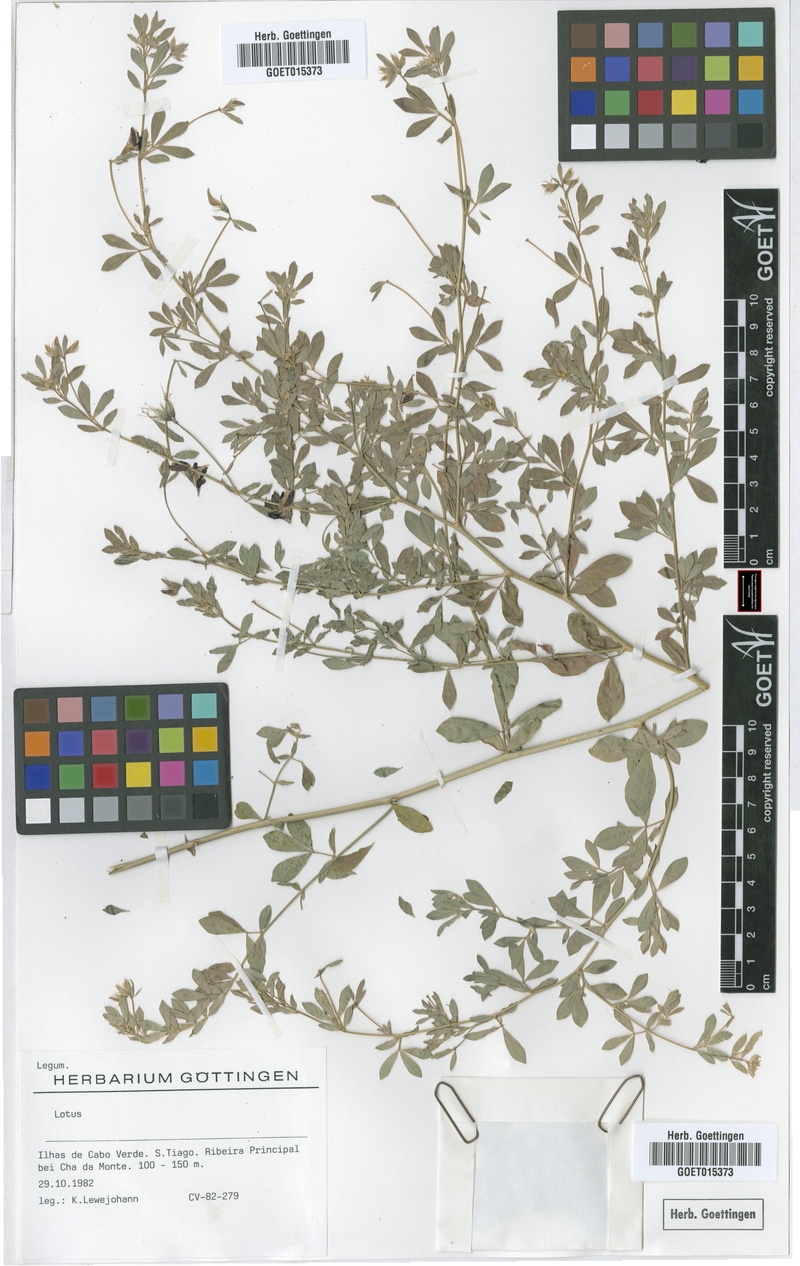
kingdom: Plantae
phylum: Tracheophyta
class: Magnoliopsida
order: Fabales
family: Fabaceae
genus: Lotus
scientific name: Lotus
